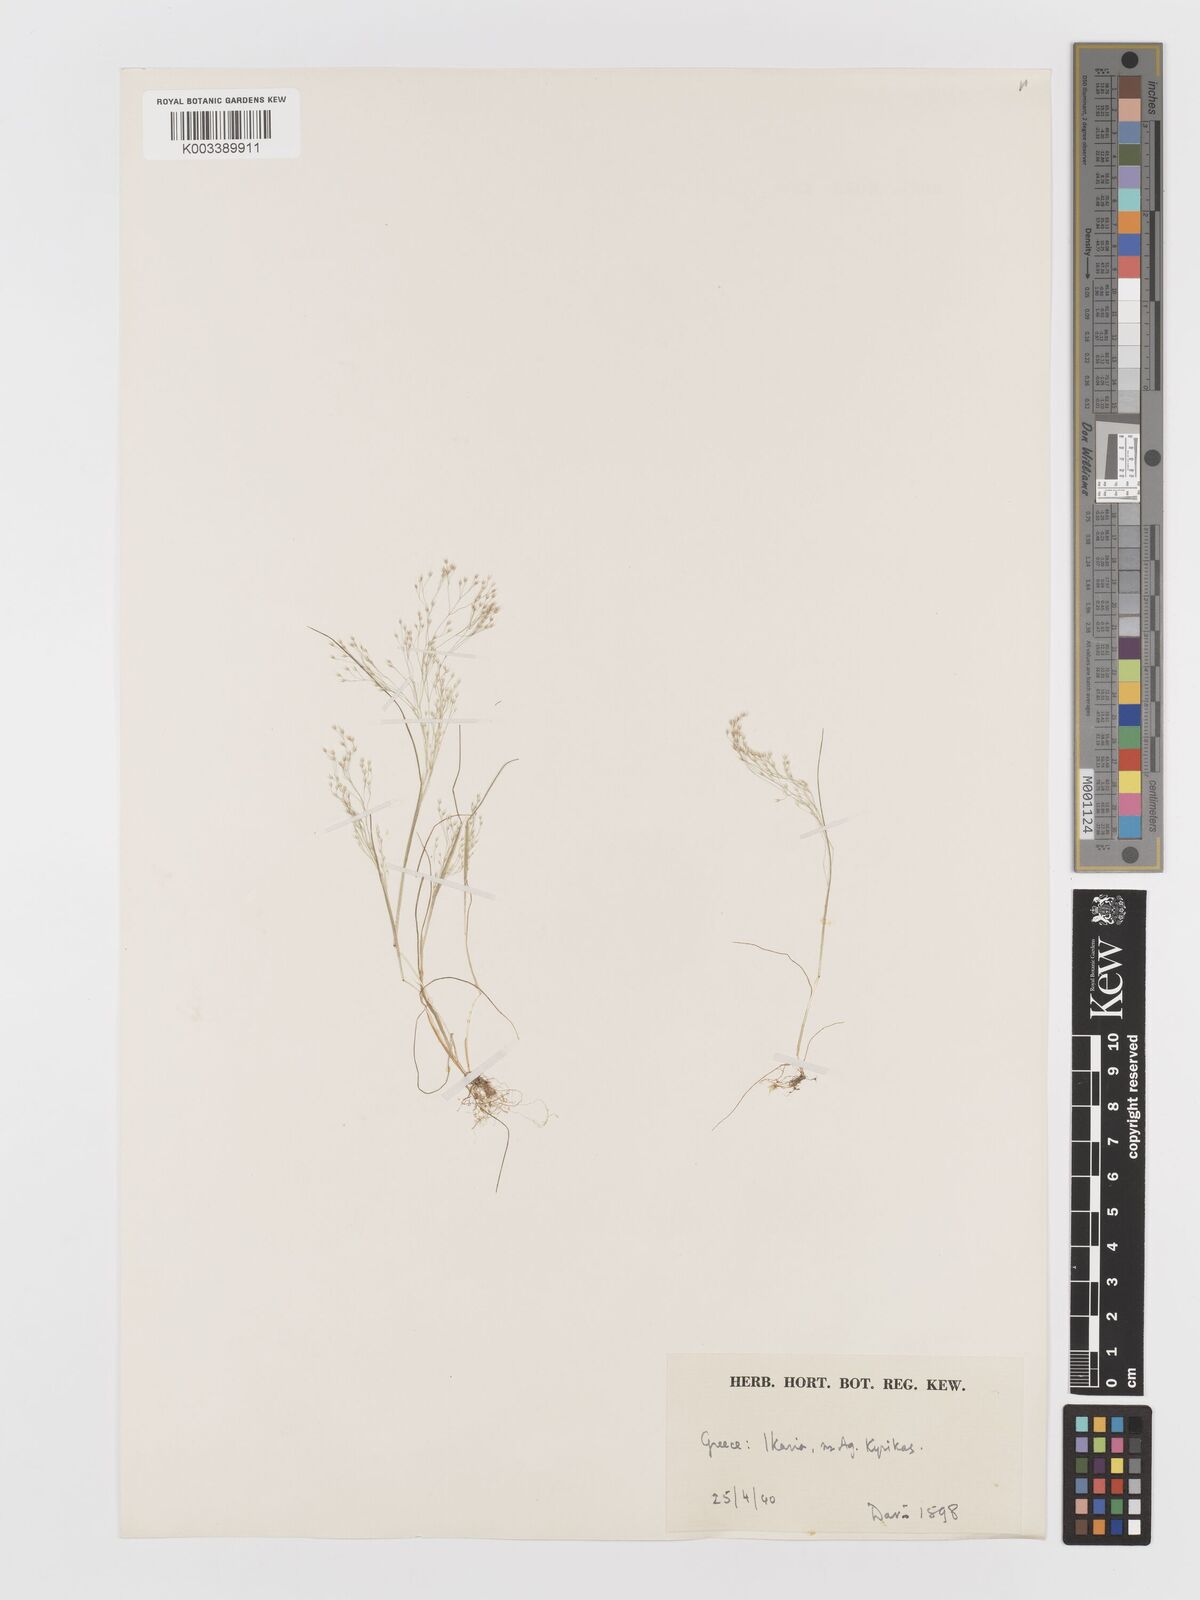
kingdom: Plantae
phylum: Tracheophyta
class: Liliopsida
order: Poales
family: Poaceae
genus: Aira
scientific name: Aira elegans
